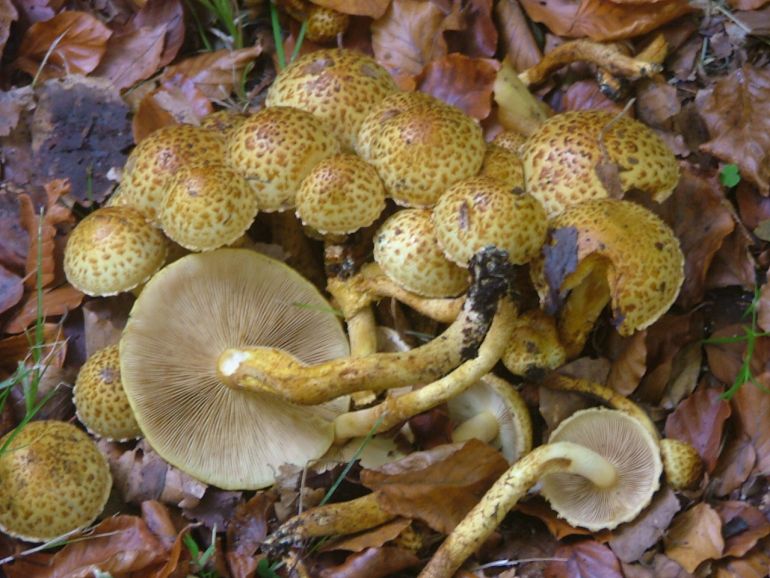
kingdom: Fungi
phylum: Basidiomycota
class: Agaricomycetes
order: Agaricales
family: Strophariaceae
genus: Pholiota
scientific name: Pholiota jahnii
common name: slimet skælhat
